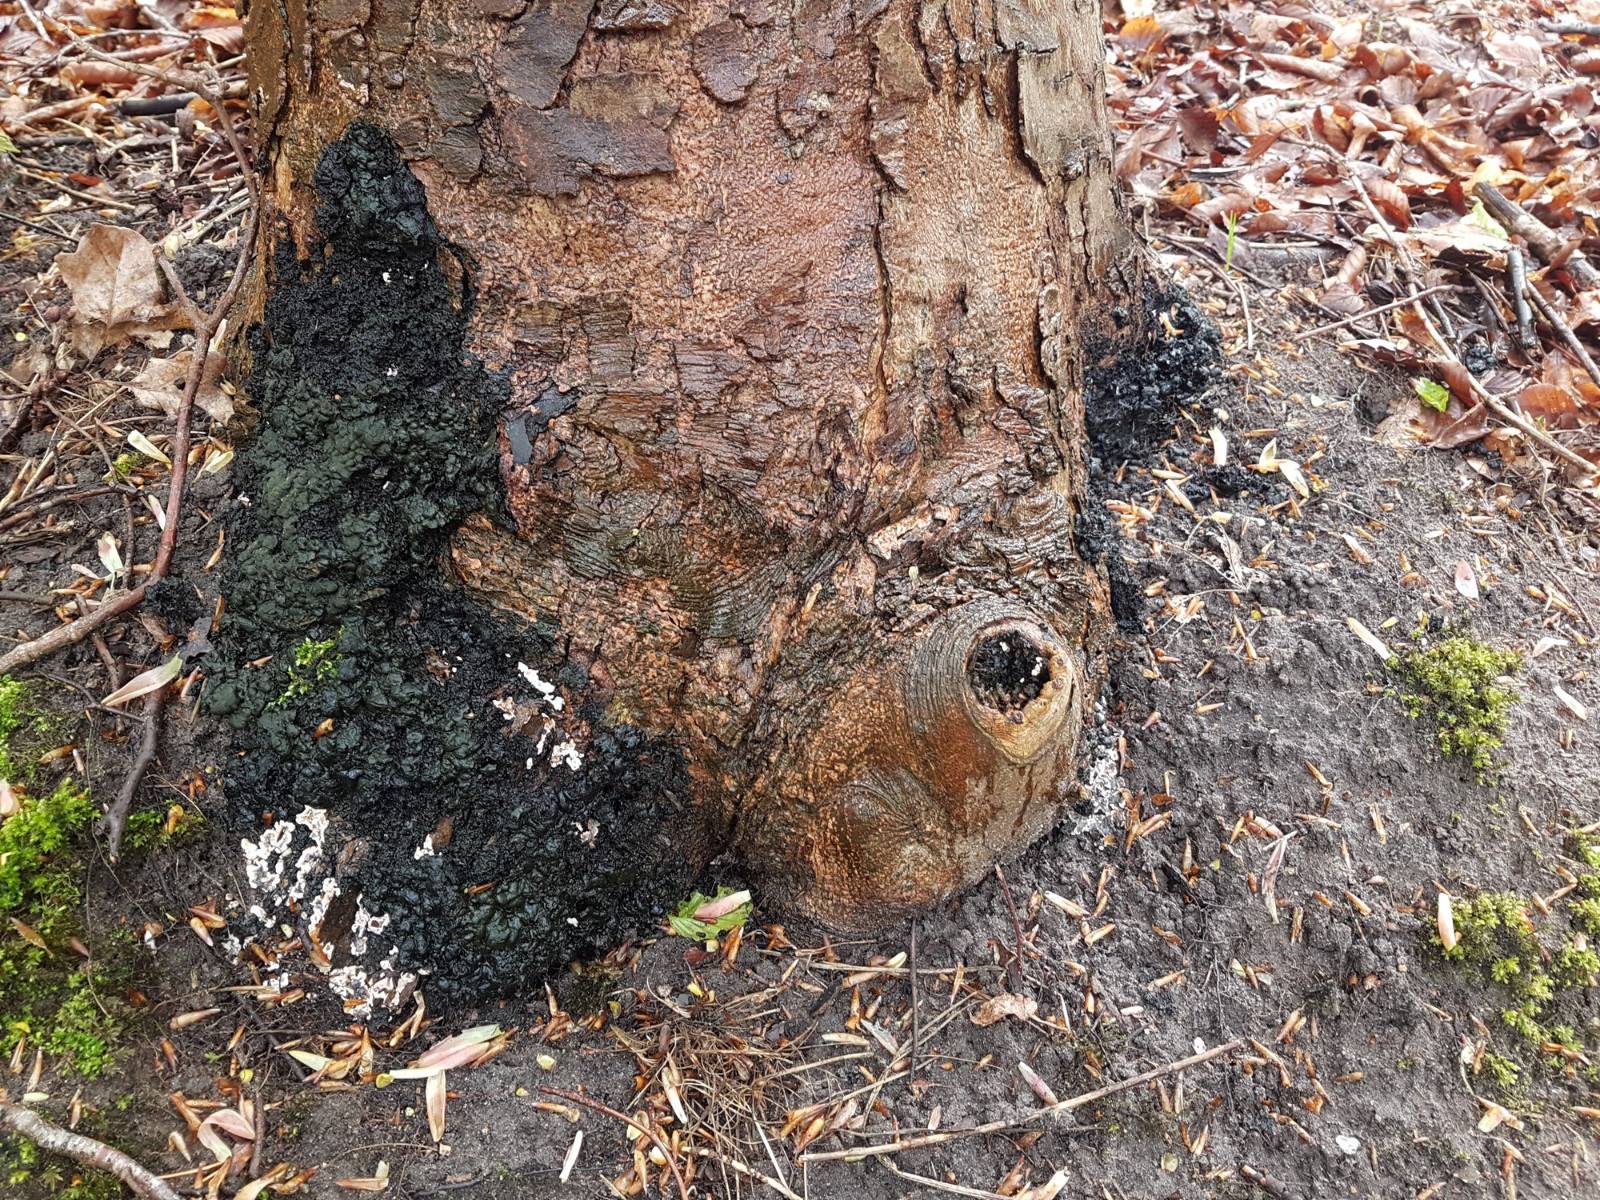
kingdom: Fungi
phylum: Ascomycota
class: Sordariomycetes
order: Xylariales
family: Xylariaceae
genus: Kretzschmaria
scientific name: Kretzschmaria deusta
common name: stor kulsvamp
